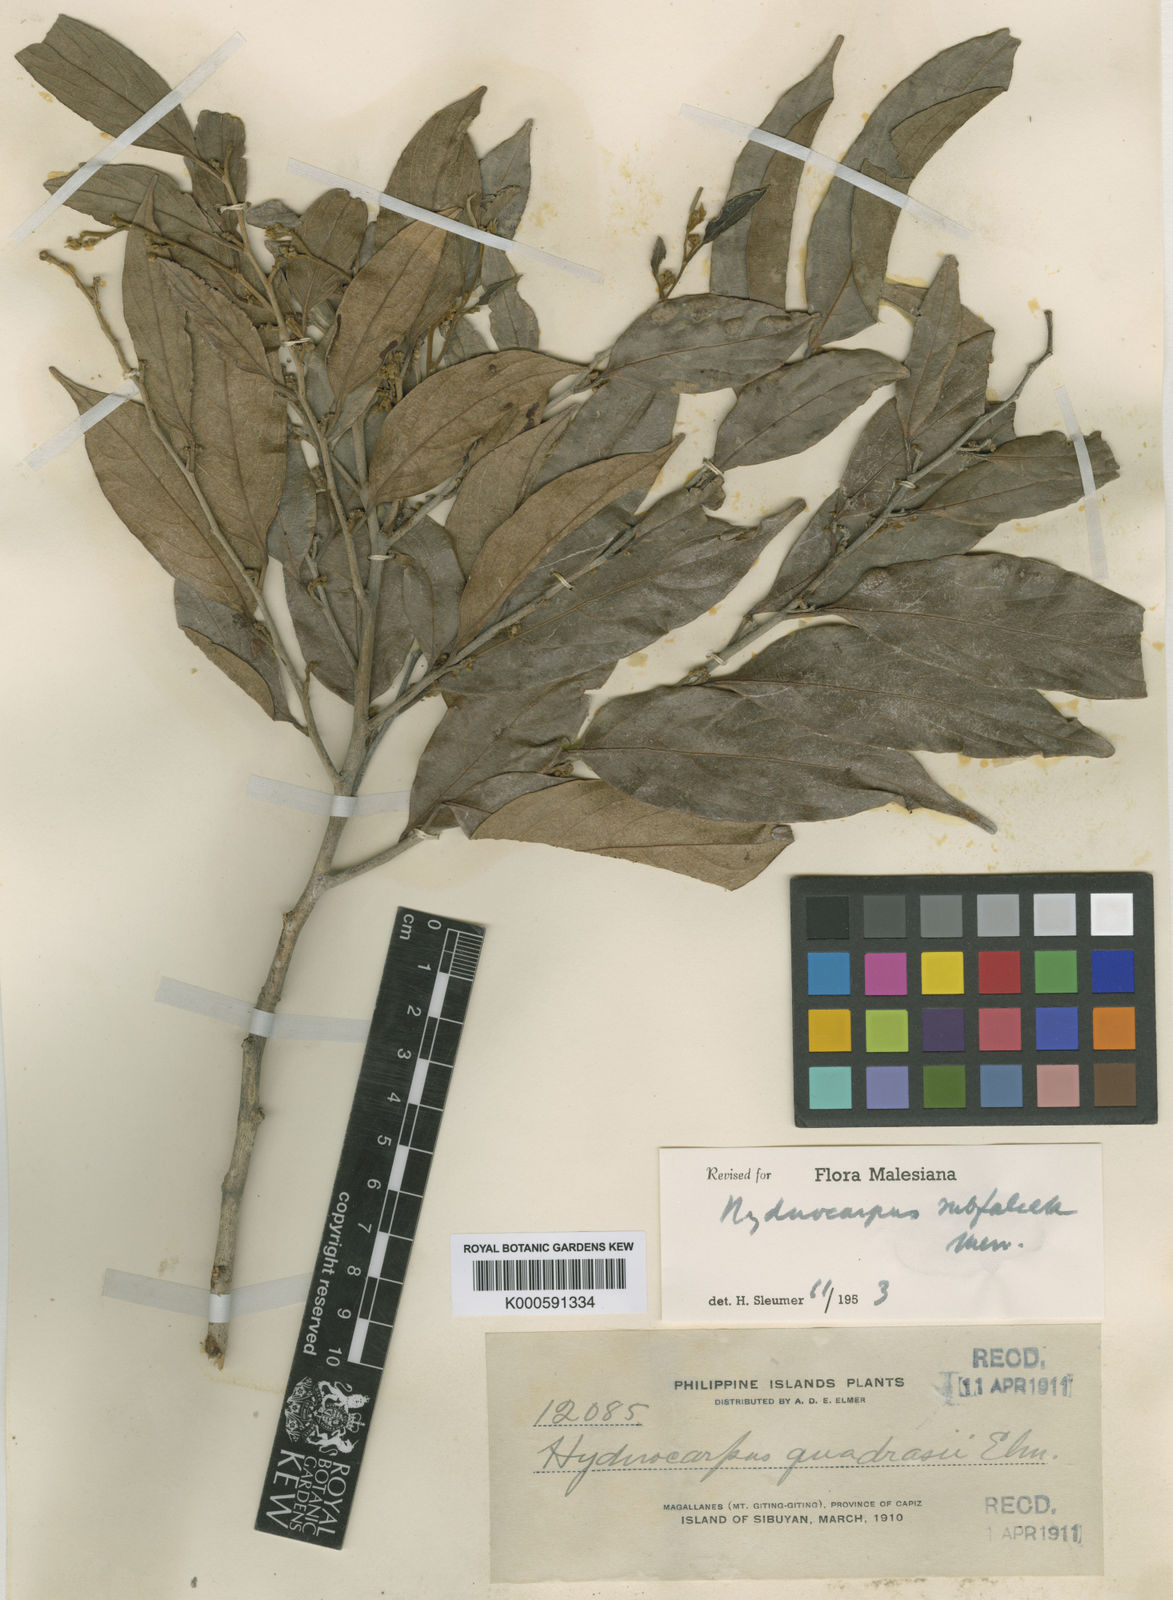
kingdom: Plantae
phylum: Tracheophyta
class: Magnoliopsida
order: Malpighiales
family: Achariaceae
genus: Hydnocarpus
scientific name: Hydnocarpus subfalcatus
